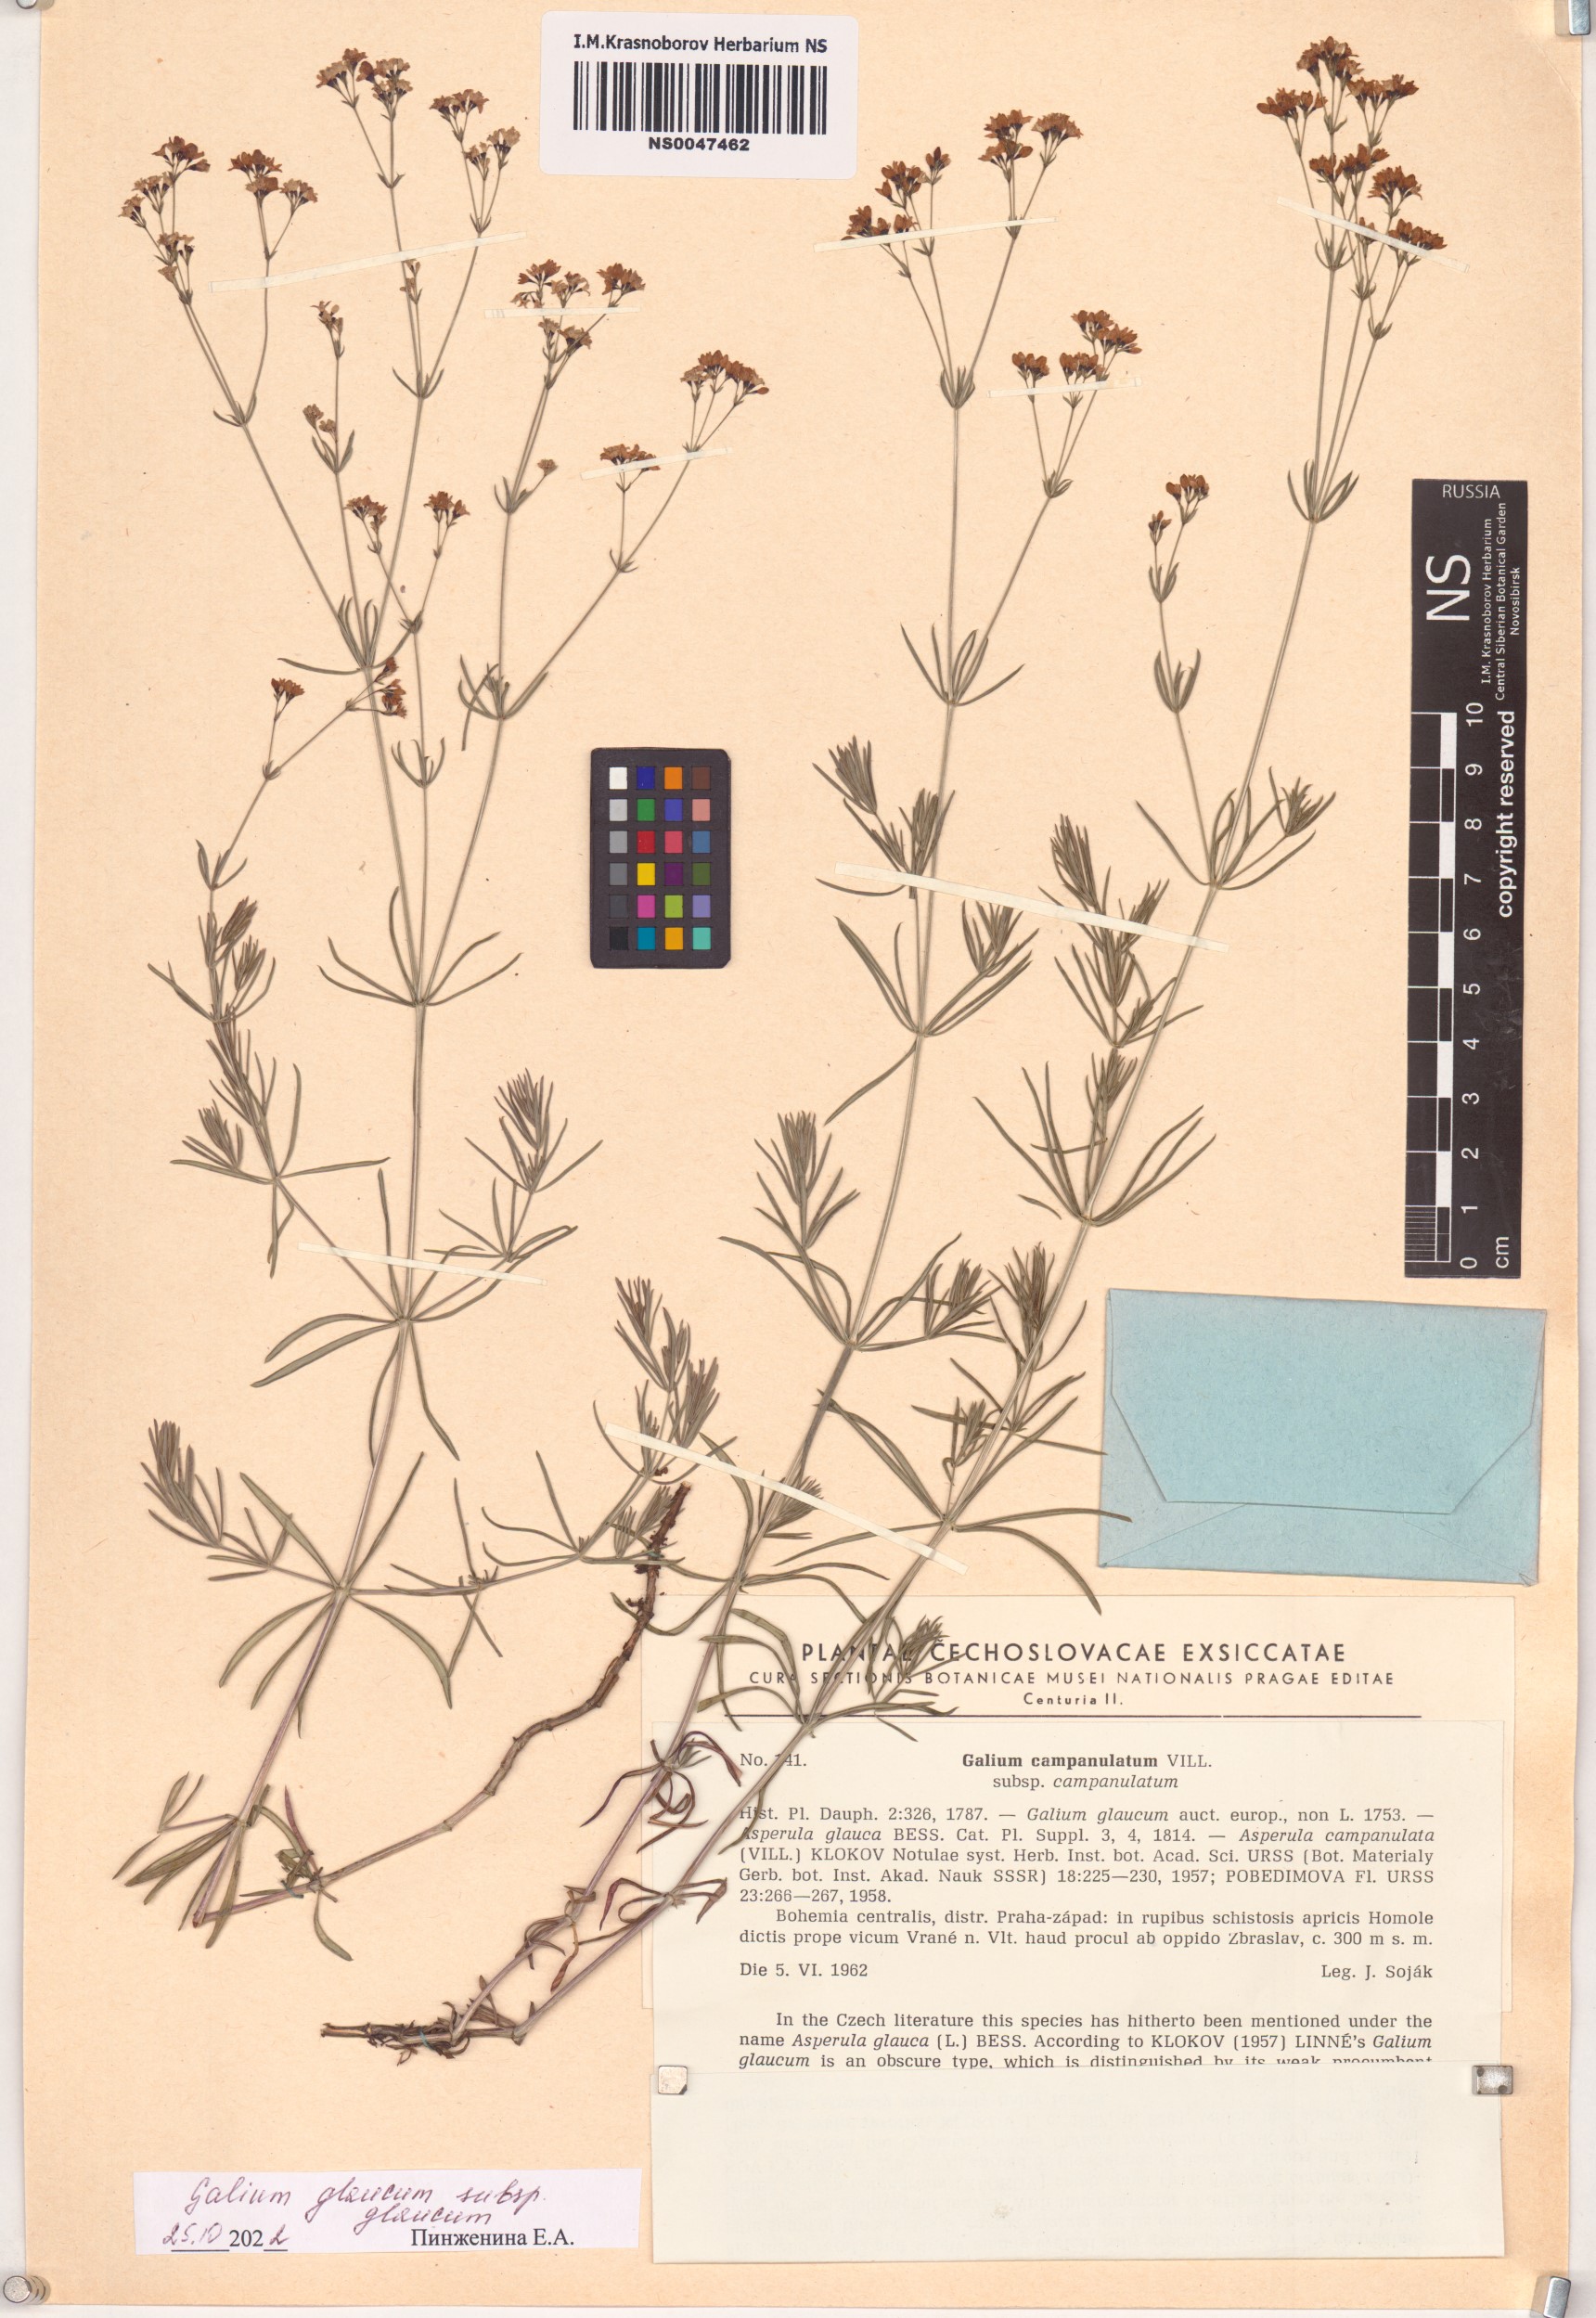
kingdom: Plantae
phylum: Tracheophyta
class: Magnoliopsida
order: Gentianales
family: Rubiaceae
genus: Galium
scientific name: Galium glaucum
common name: Waxy bedstraw
